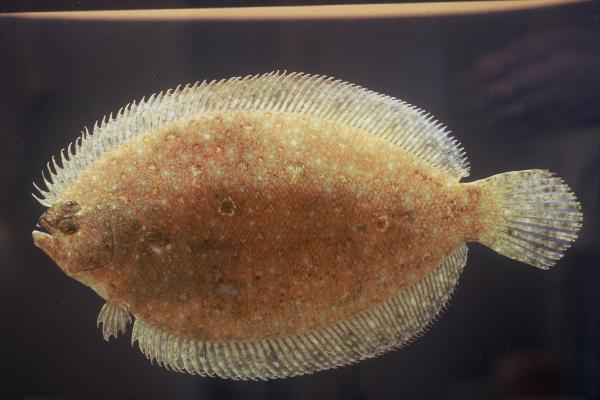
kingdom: Animalia
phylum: Chordata
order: Pleuronectiformes
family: Paralichthyidae
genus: Pseudorhombus
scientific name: Pseudorhombus arsius
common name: Largetooth flounder
